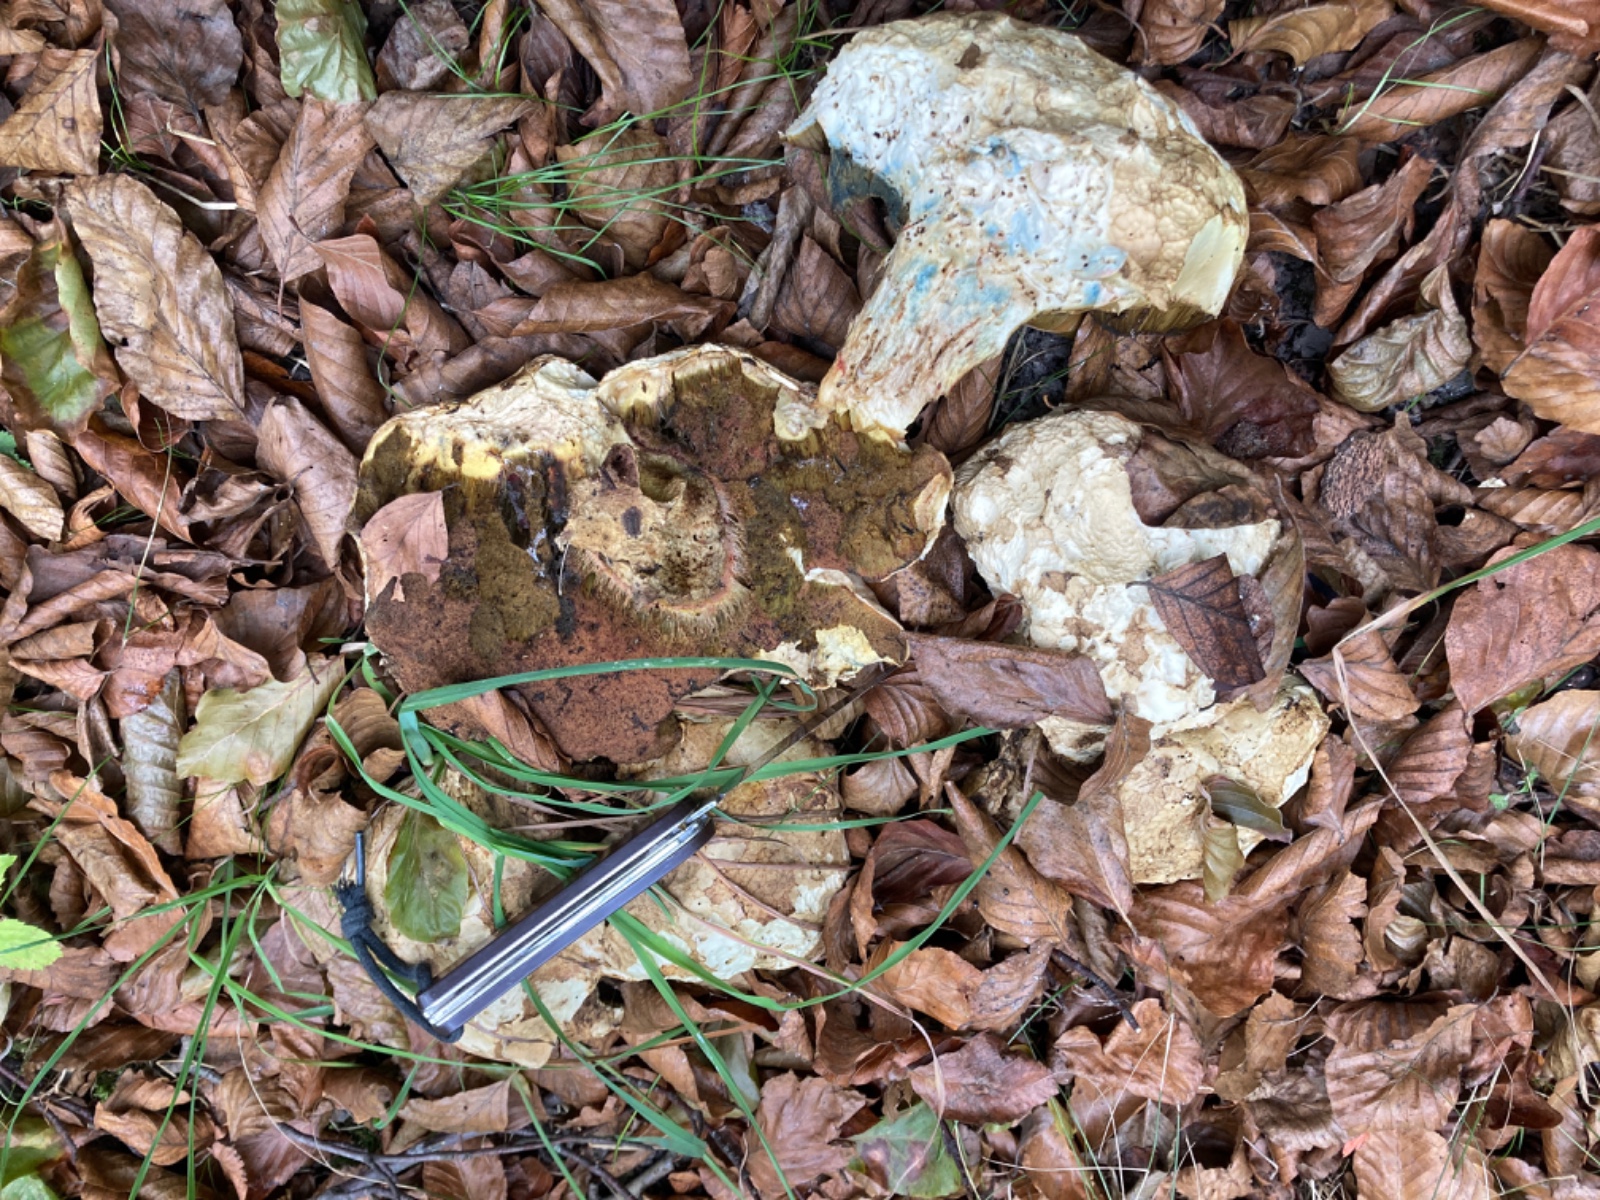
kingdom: Fungi
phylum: Basidiomycota
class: Agaricomycetes
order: Boletales
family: Boletaceae
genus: Rubroboletus
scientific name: Rubroboletus satanas
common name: Satans rørhat
